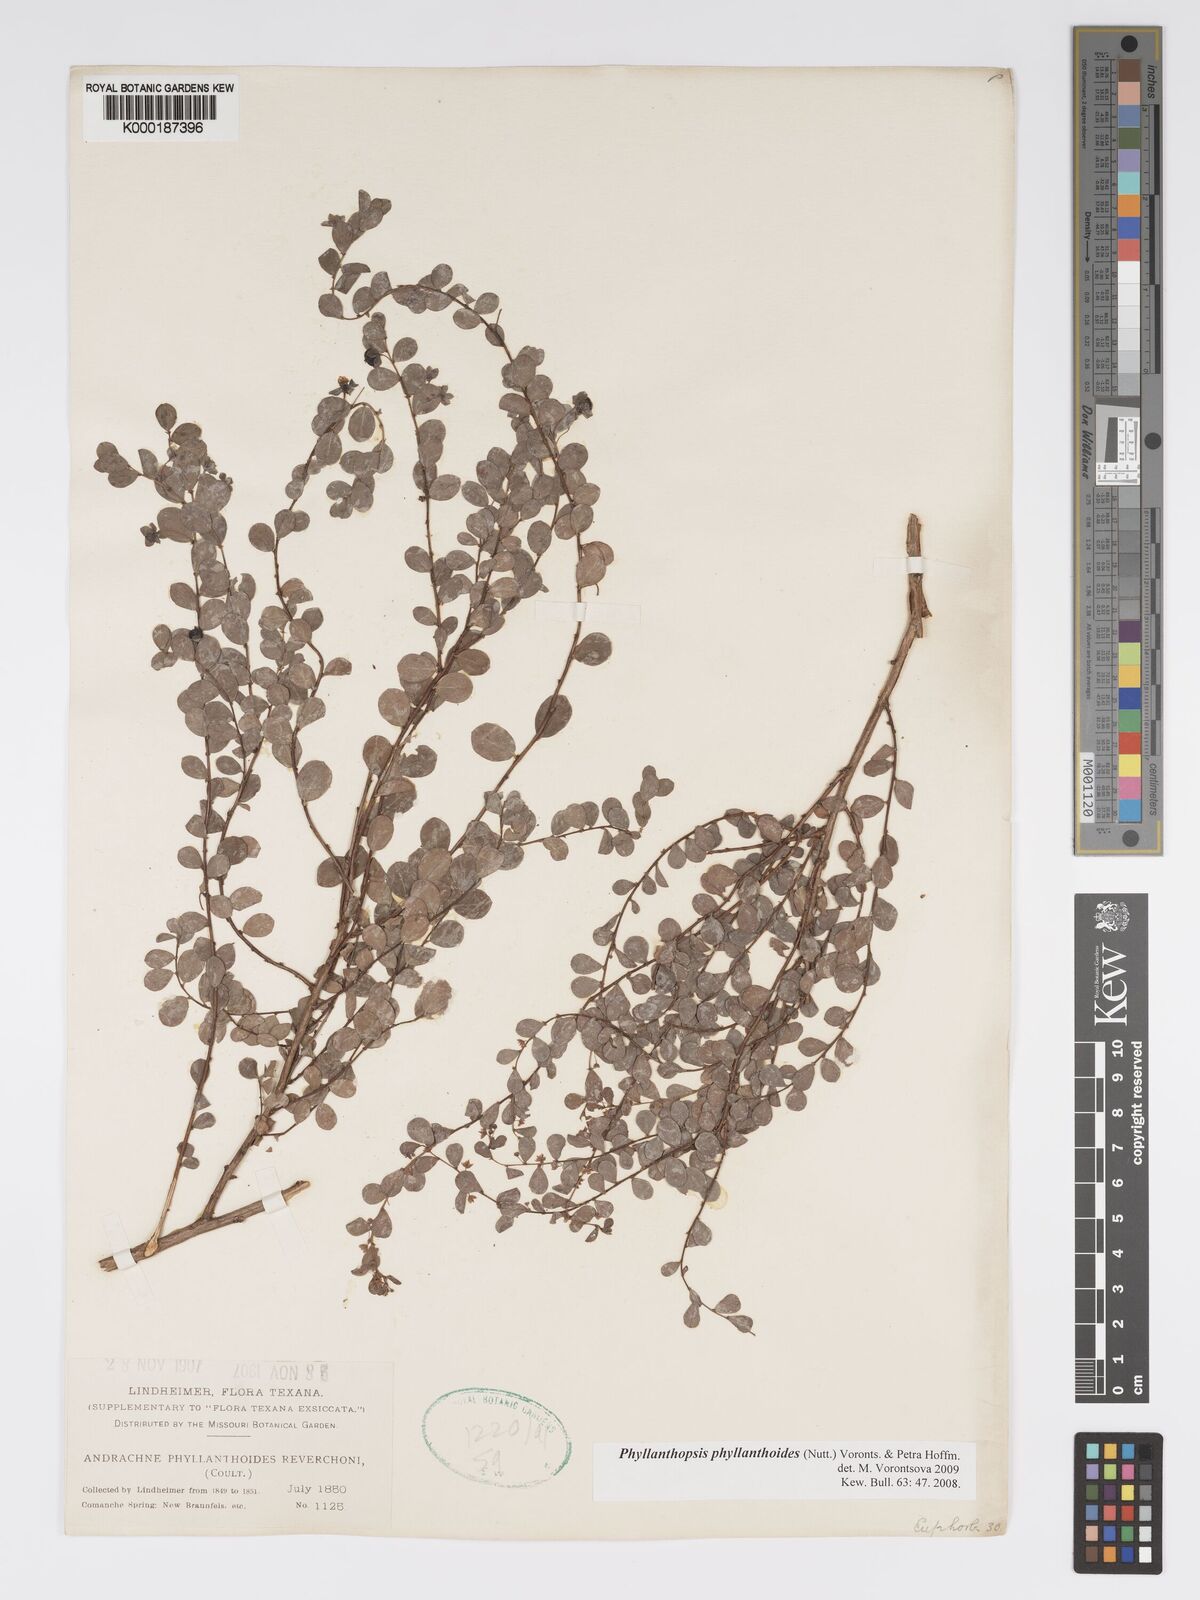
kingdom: Plantae
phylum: Tracheophyta
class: Magnoliopsida
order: Malpighiales
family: Phyllanthaceae
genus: Andrachne
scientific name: Andrachne
